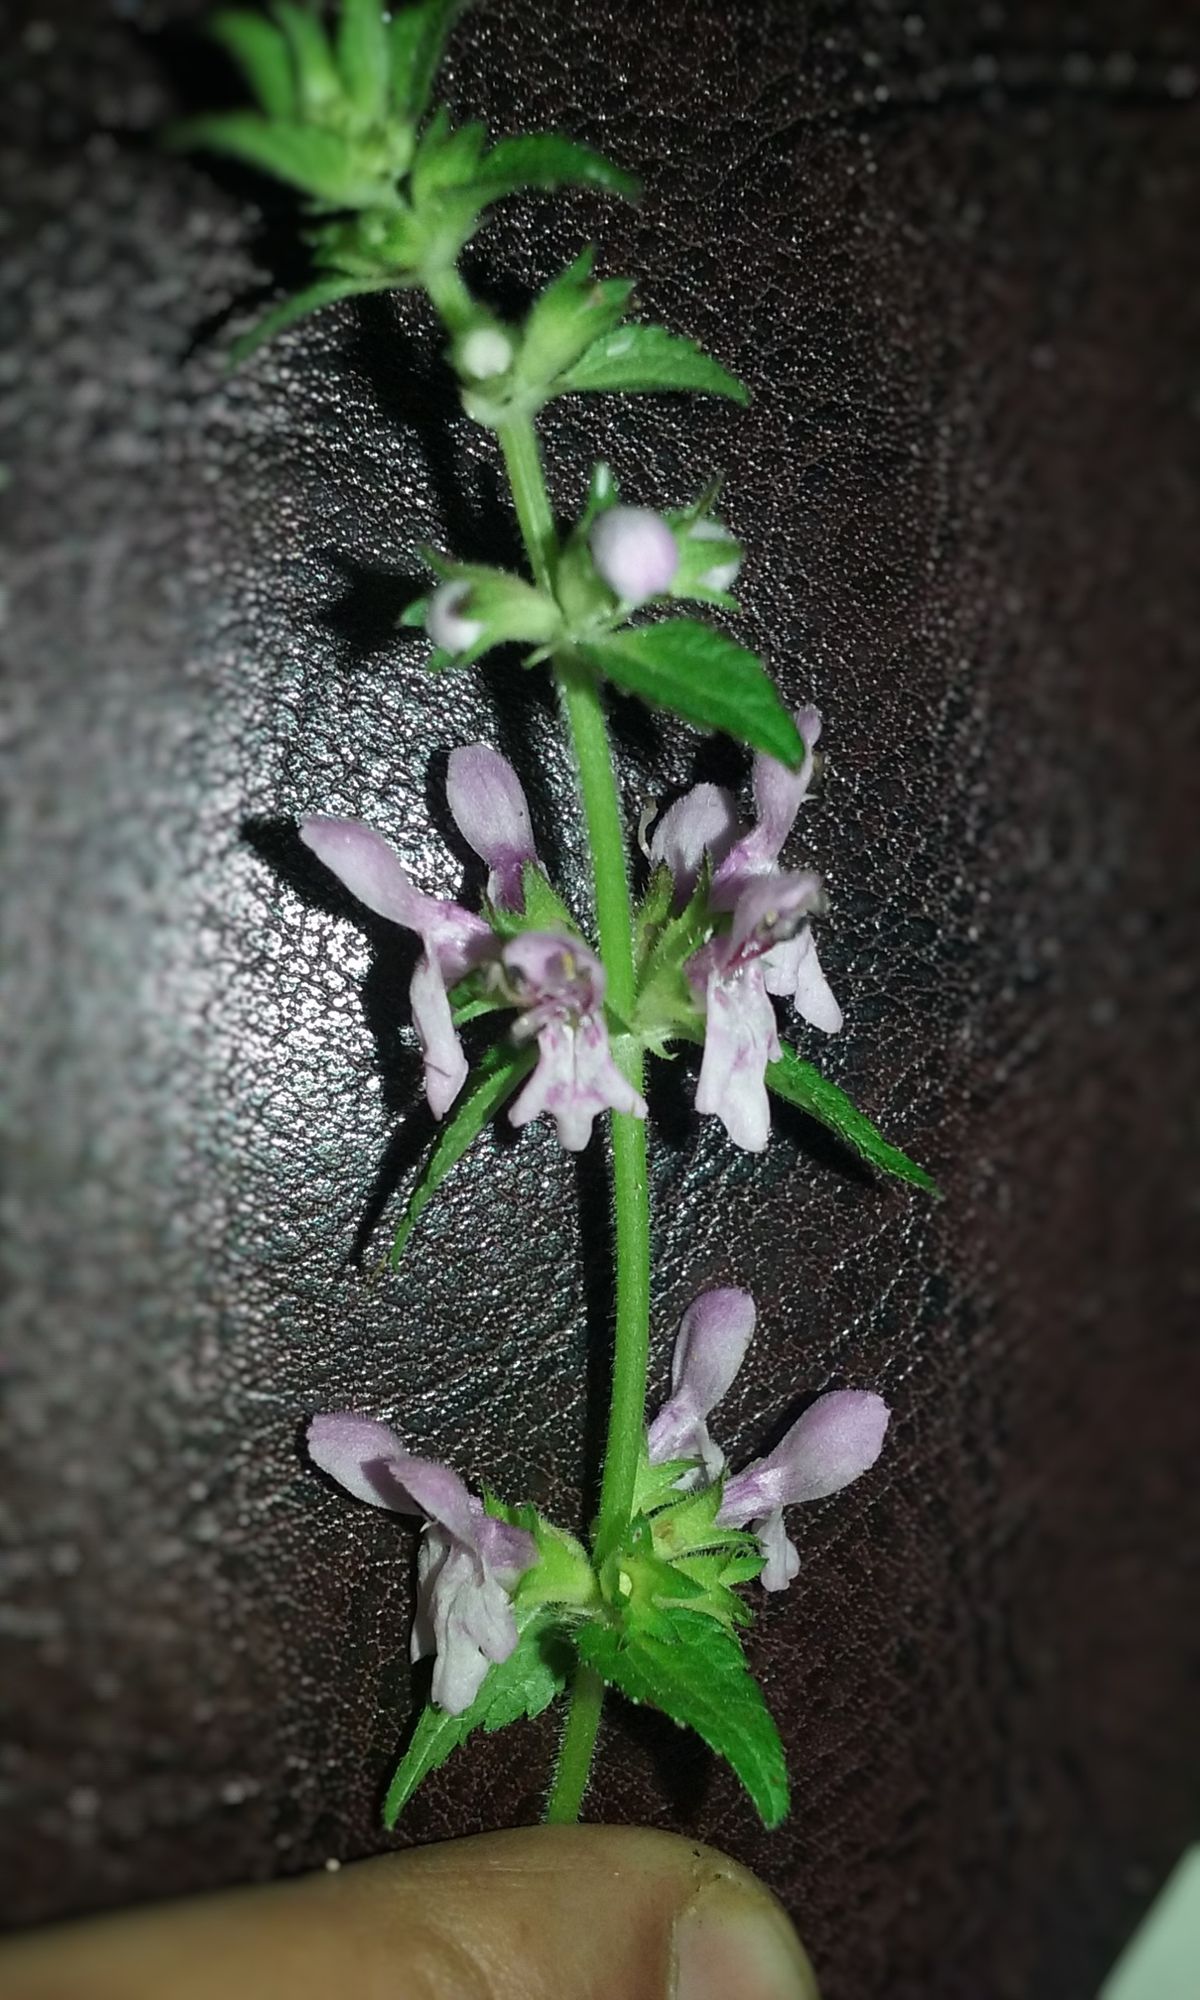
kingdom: Plantae
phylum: Tracheophyta
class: Magnoliopsida
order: Lamiales
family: Lamiaceae
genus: Stachys
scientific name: Stachys costaricensis
